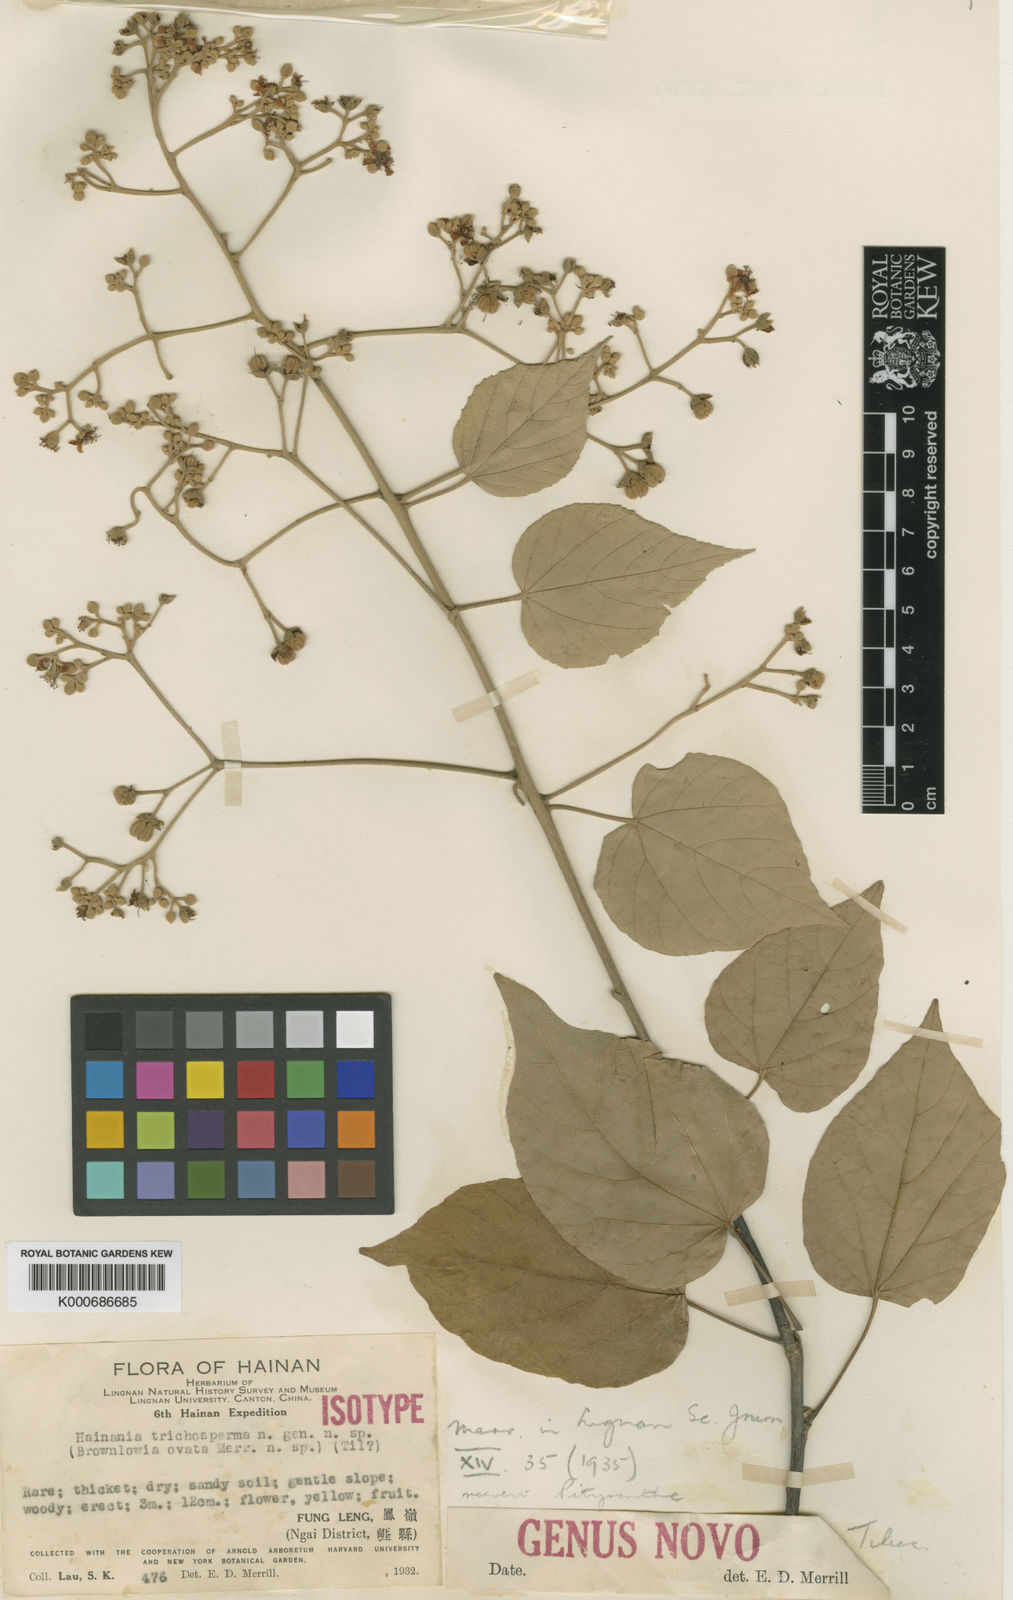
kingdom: Plantae
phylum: Tracheophyta
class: Magnoliopsida
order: Malvales
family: Malvaceae
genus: Pityranthe
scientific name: Pityranthe trichosperma
